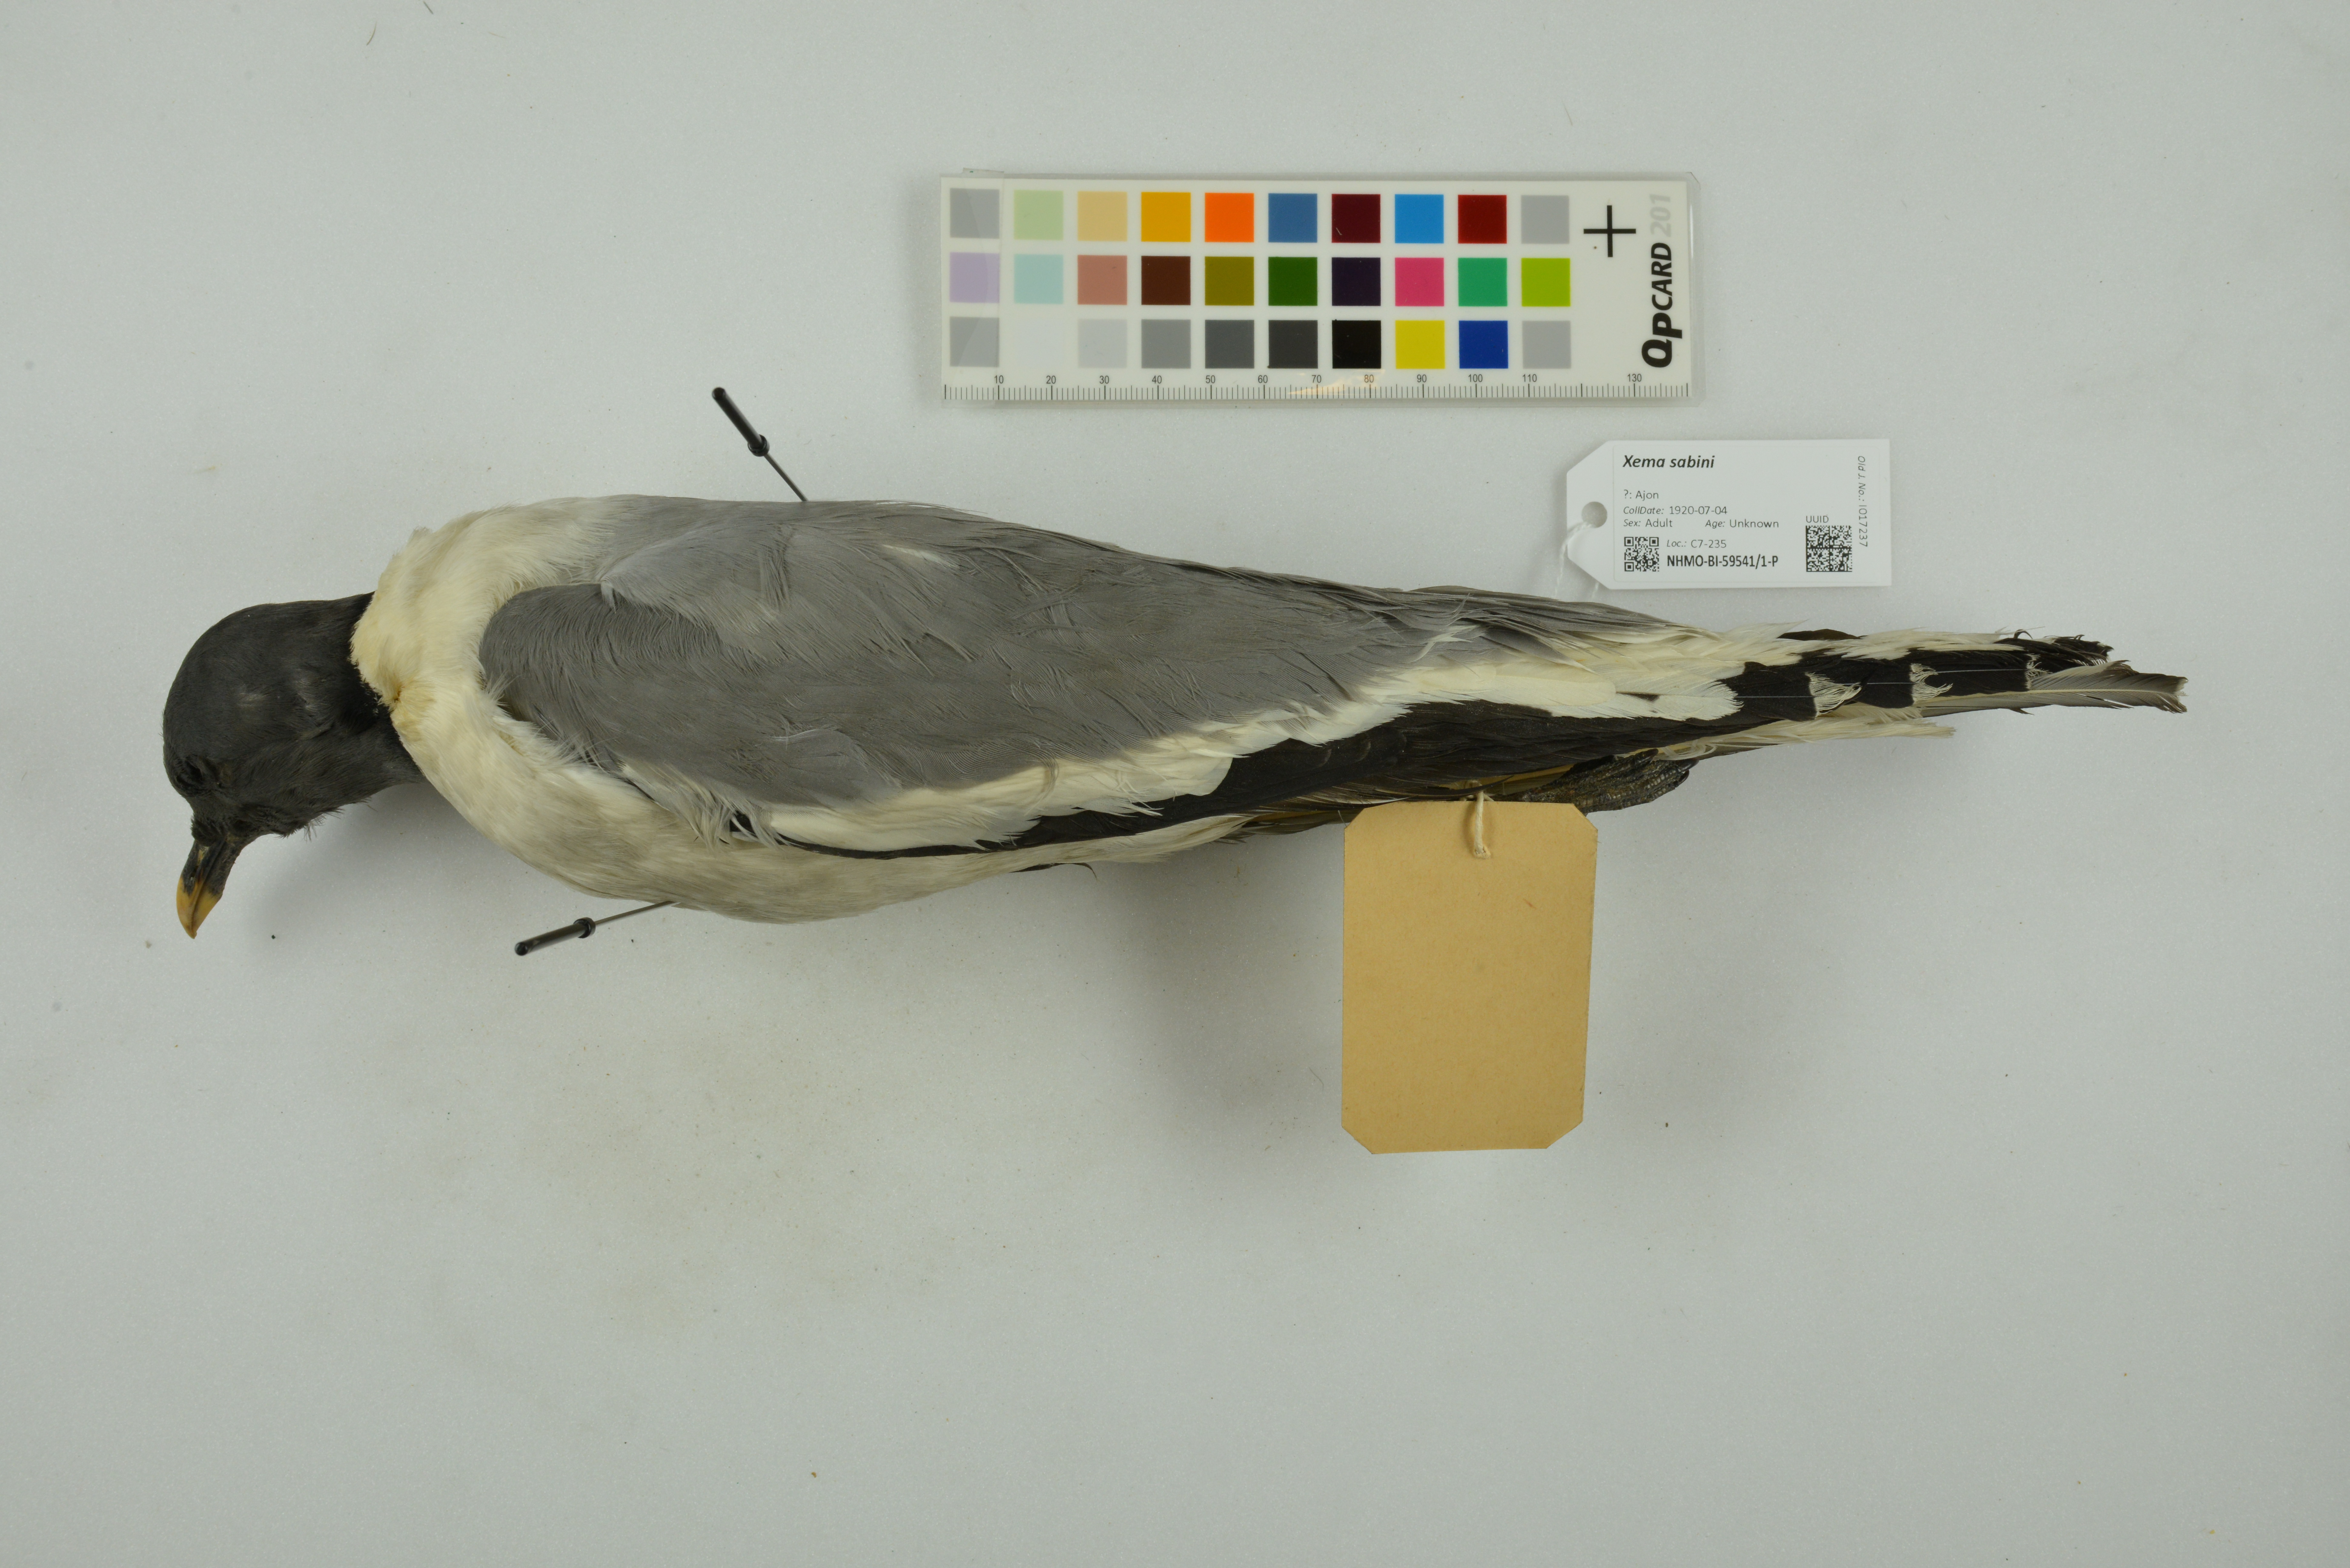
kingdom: Animalia
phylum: Chordata
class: Aves
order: Charadriiformes
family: Laridae
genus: Xema
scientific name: Xema sabini
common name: Sabine's gull
